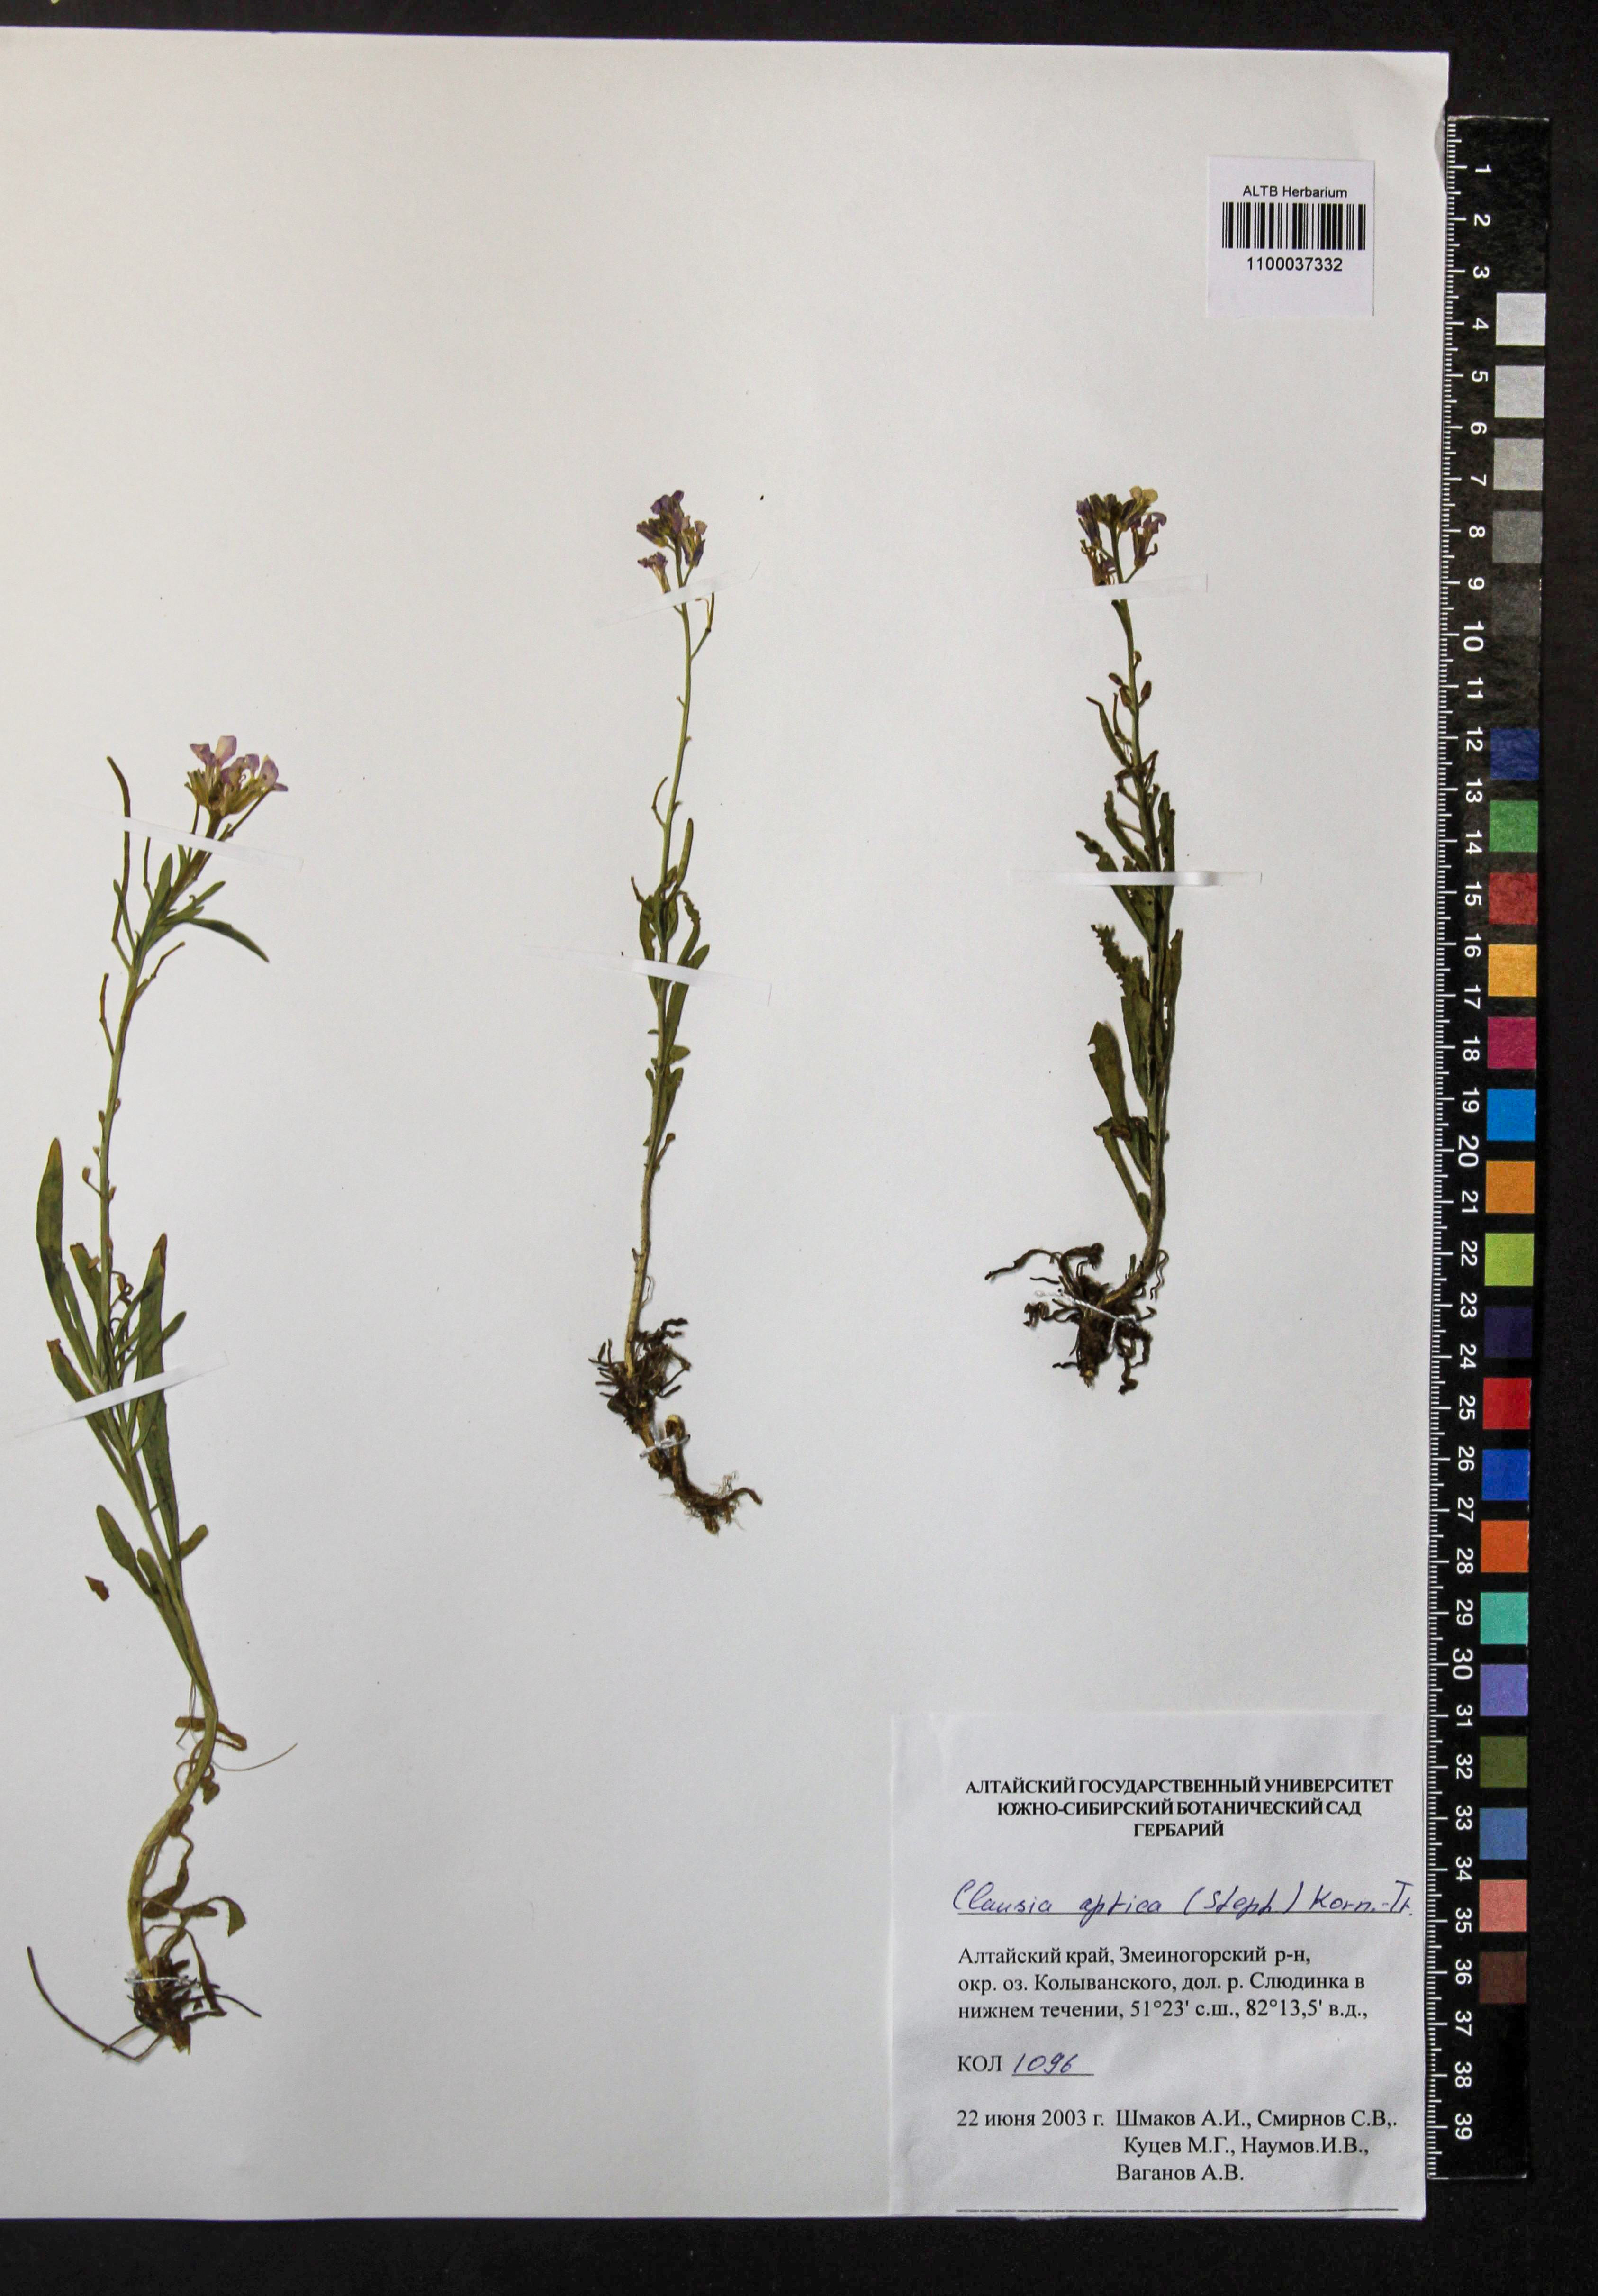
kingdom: Plantae
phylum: Tracheophyta
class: Magnoliopsida
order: Brassicales
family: Brassicaceae
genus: Clausia
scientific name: Clausia aprica
